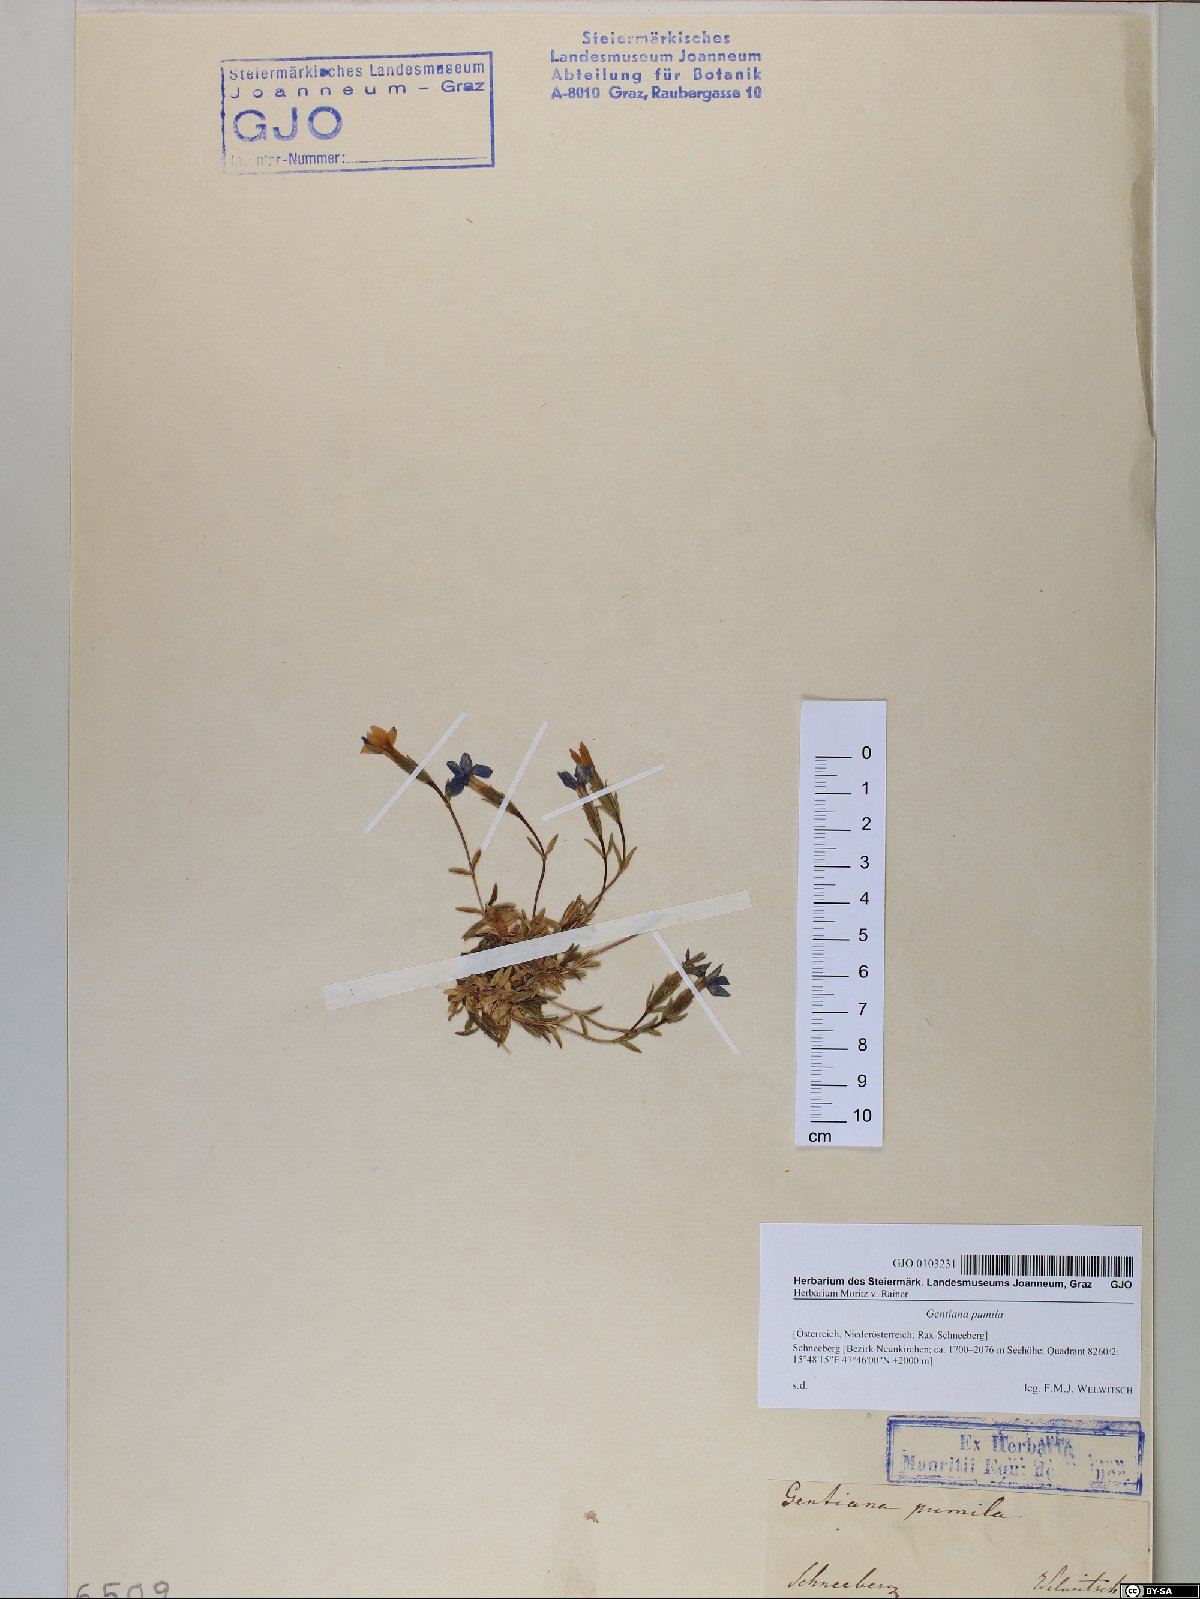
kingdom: Plantae
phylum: Tracheophyta
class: Magnoliopsida
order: Gentianales
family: Gentianaceae
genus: Gentiana
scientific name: Gentiana pumila
